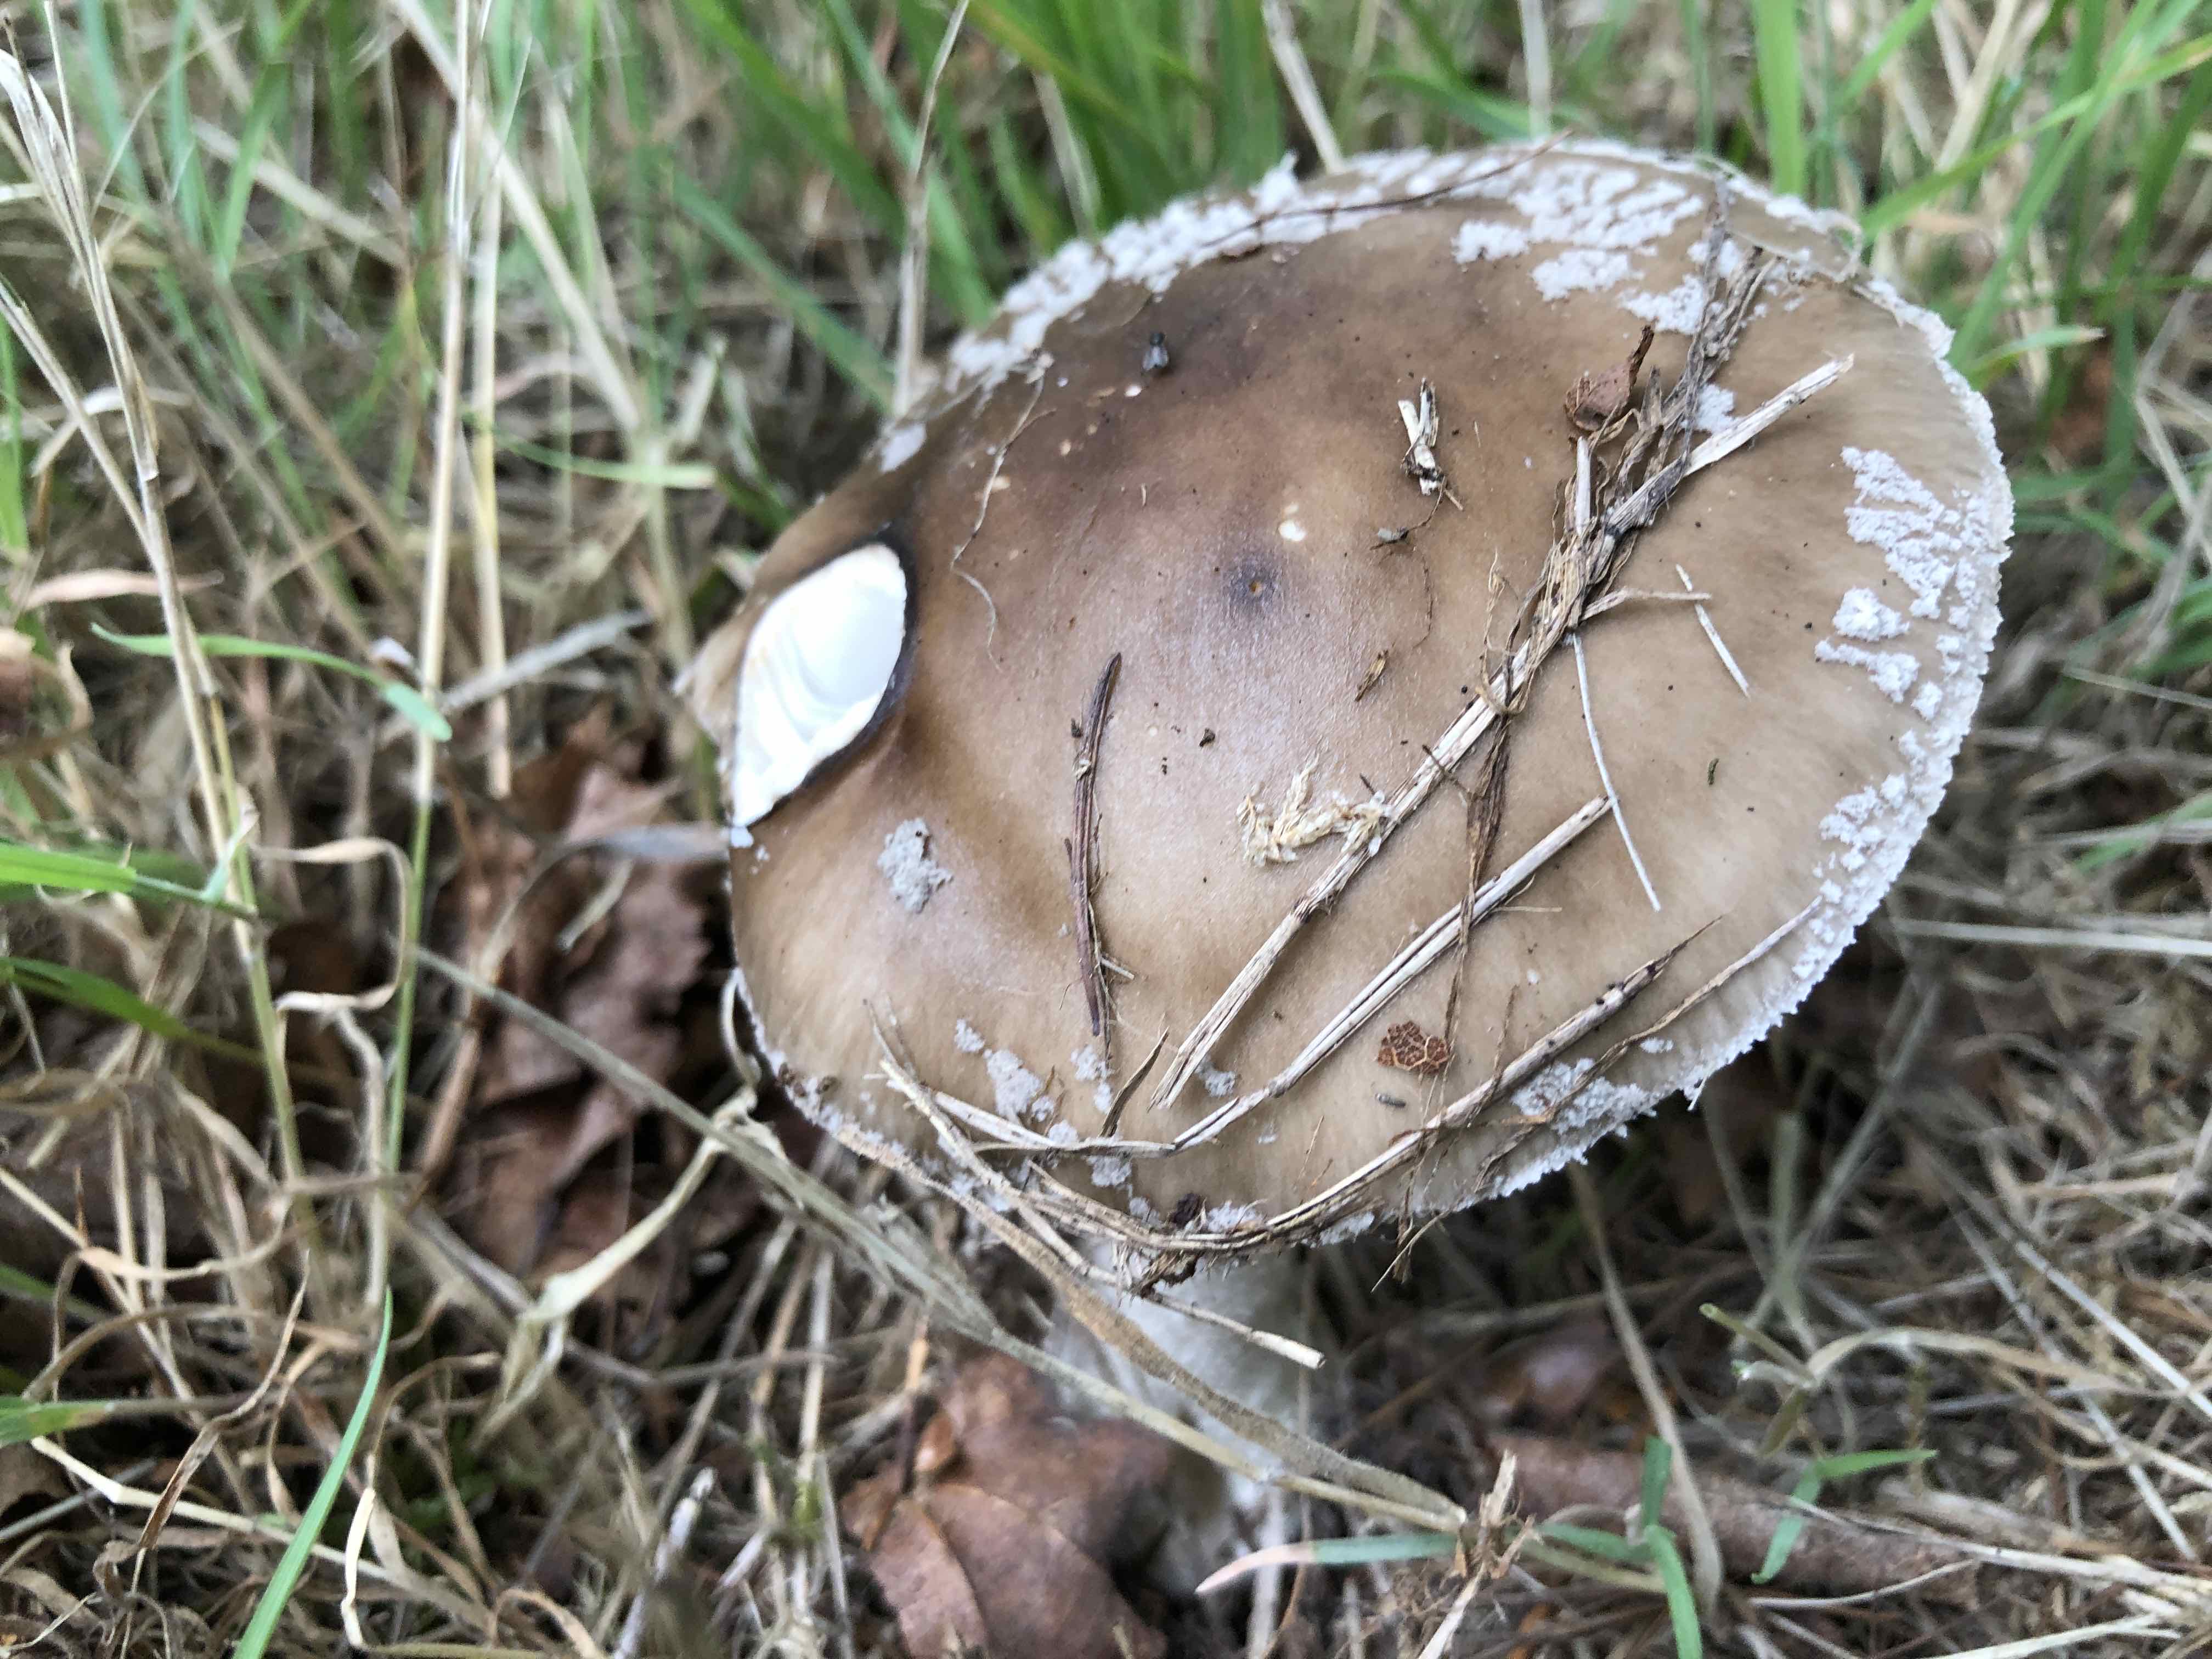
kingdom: Fungi
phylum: Basidiomycota
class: Agaricomycetes
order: Agaricales
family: Amanitaceae
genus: Amanita
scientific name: Amanita
